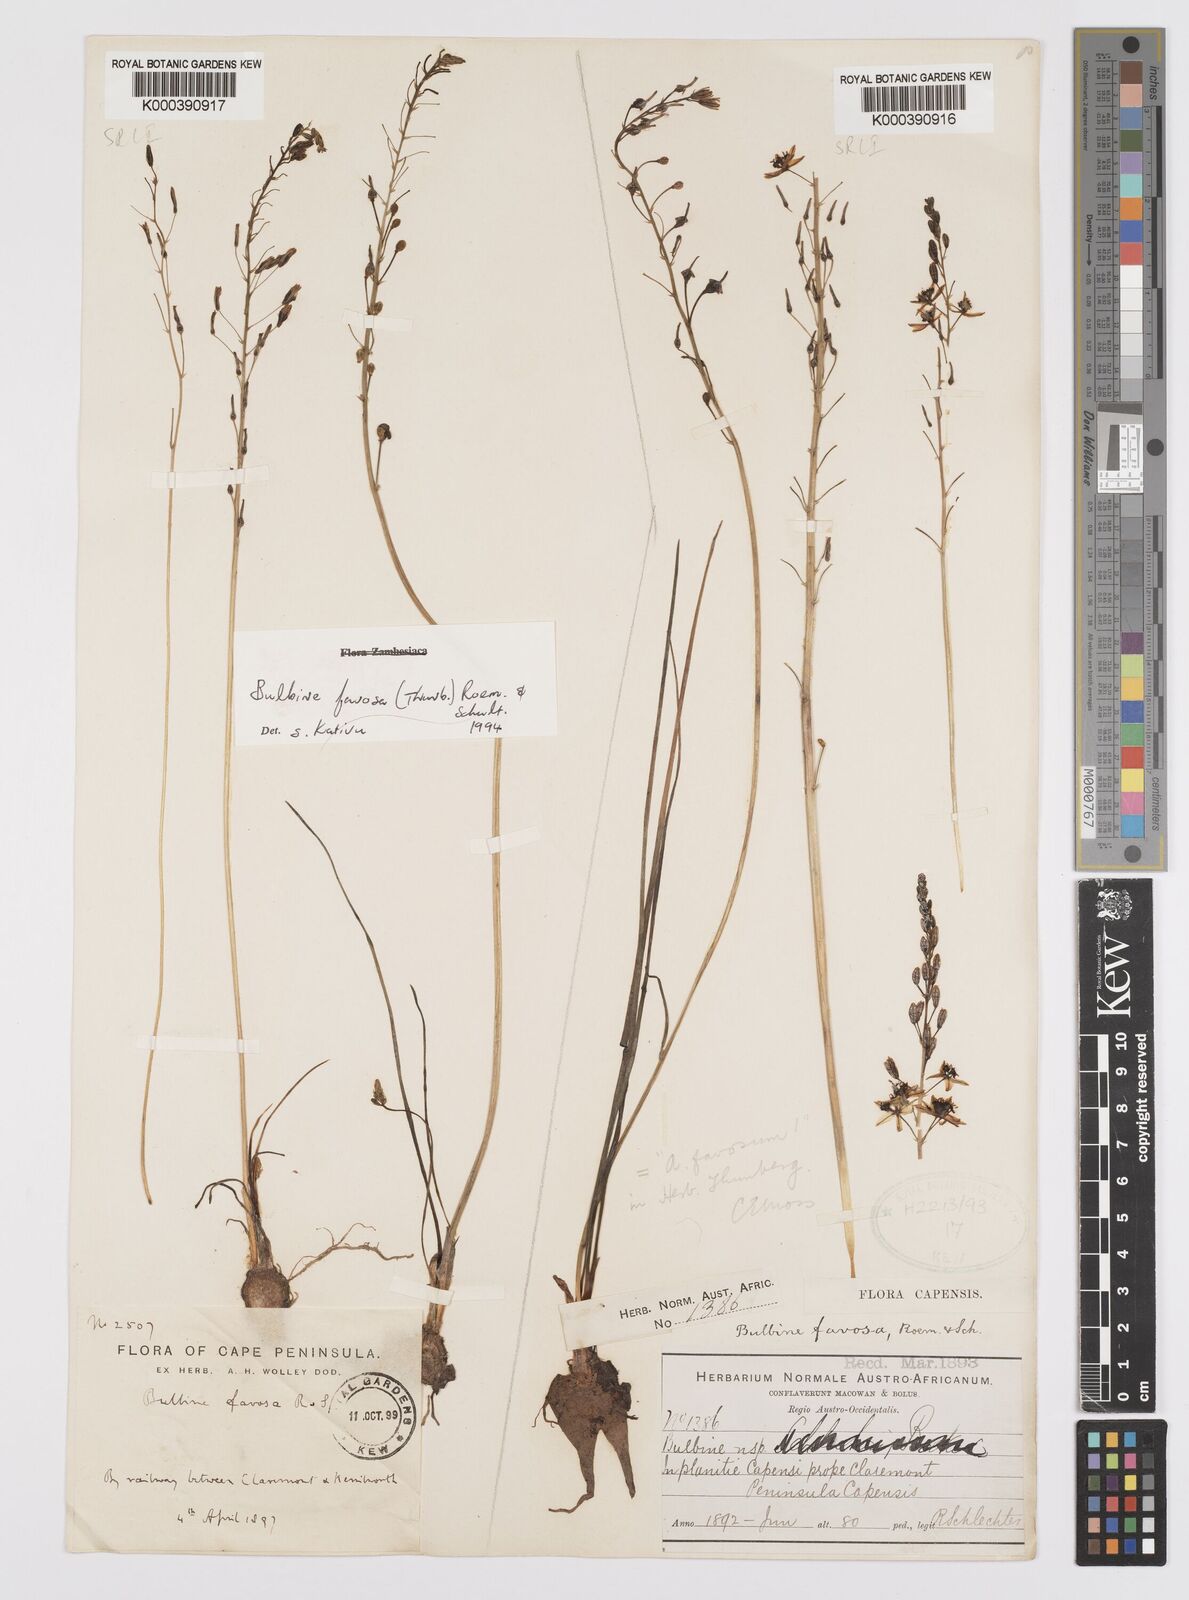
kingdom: Plantae
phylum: Tracheophyta
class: Liliopsida
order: Asparagales
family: Asphodelaceae
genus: Bulbine
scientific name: Bulbine favosa
